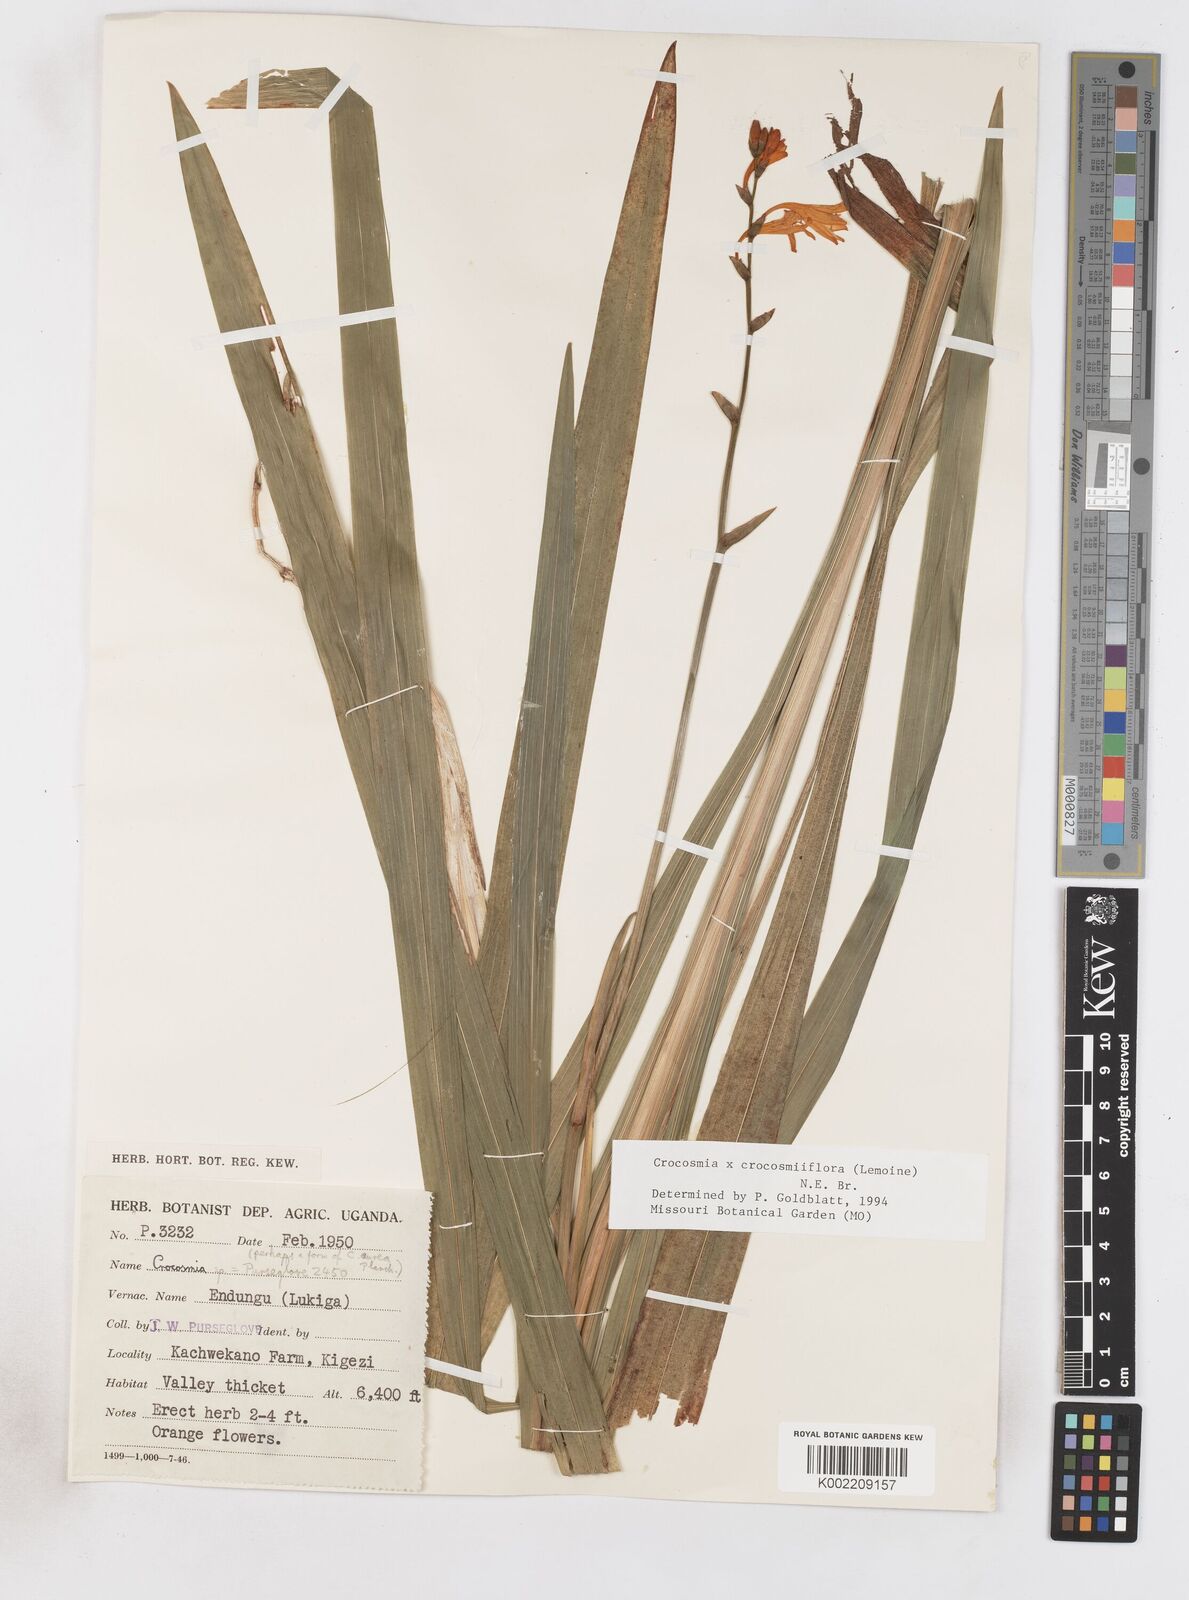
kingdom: Plantae
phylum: Tracheophyta
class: Liliopsida
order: Asparagales
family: Iridaceae
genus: Crocosmia
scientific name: Crocosmia aurea
